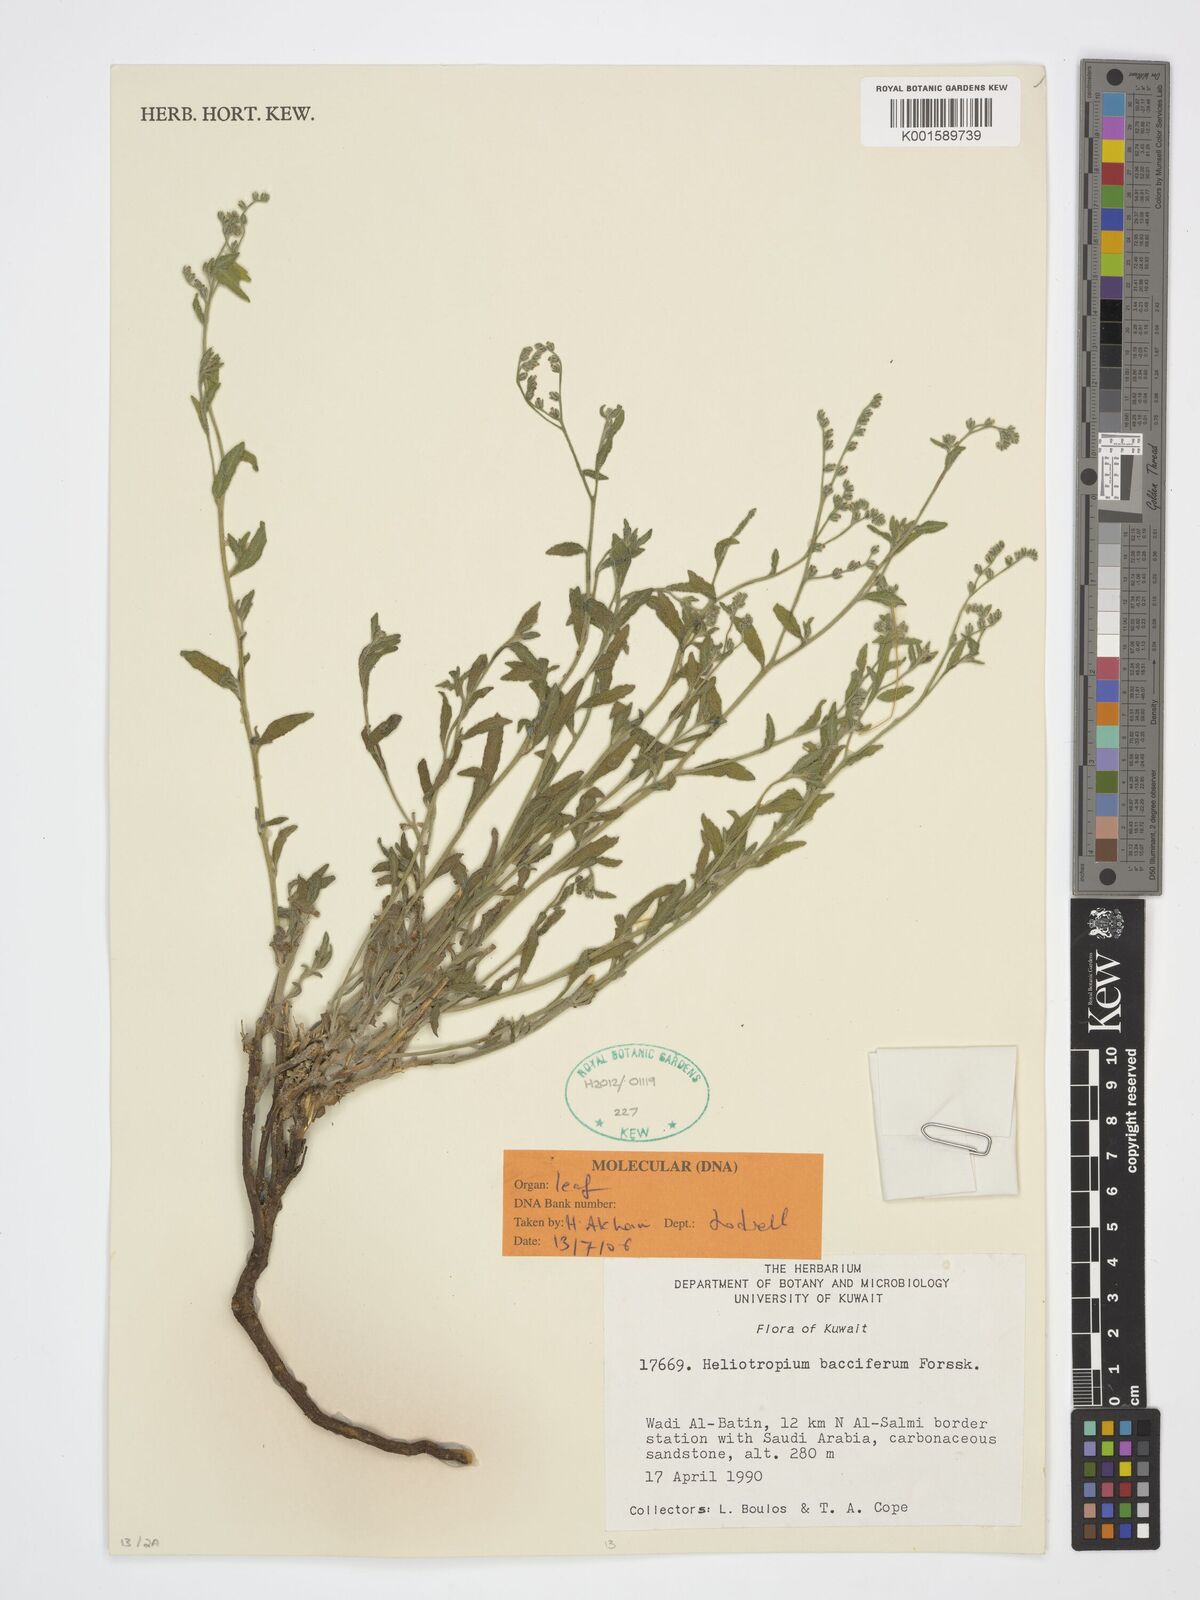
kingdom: Plantae
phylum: Tracheophyta
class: Magnoliopsida
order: Boraginales
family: Heliotropiaceae
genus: Heliotropium
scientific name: Heliotropium bacciferum
